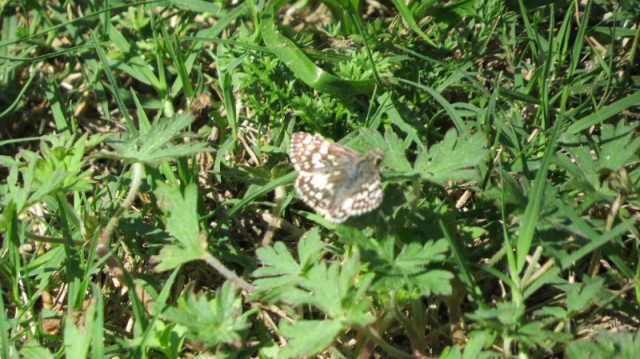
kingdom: Animalia
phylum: Arthropoda
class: Insecta
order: Lepidoptera
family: Hesperiidae
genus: Pyrgus
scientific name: Pyrgus communis
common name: Common Checkered-Skipper
